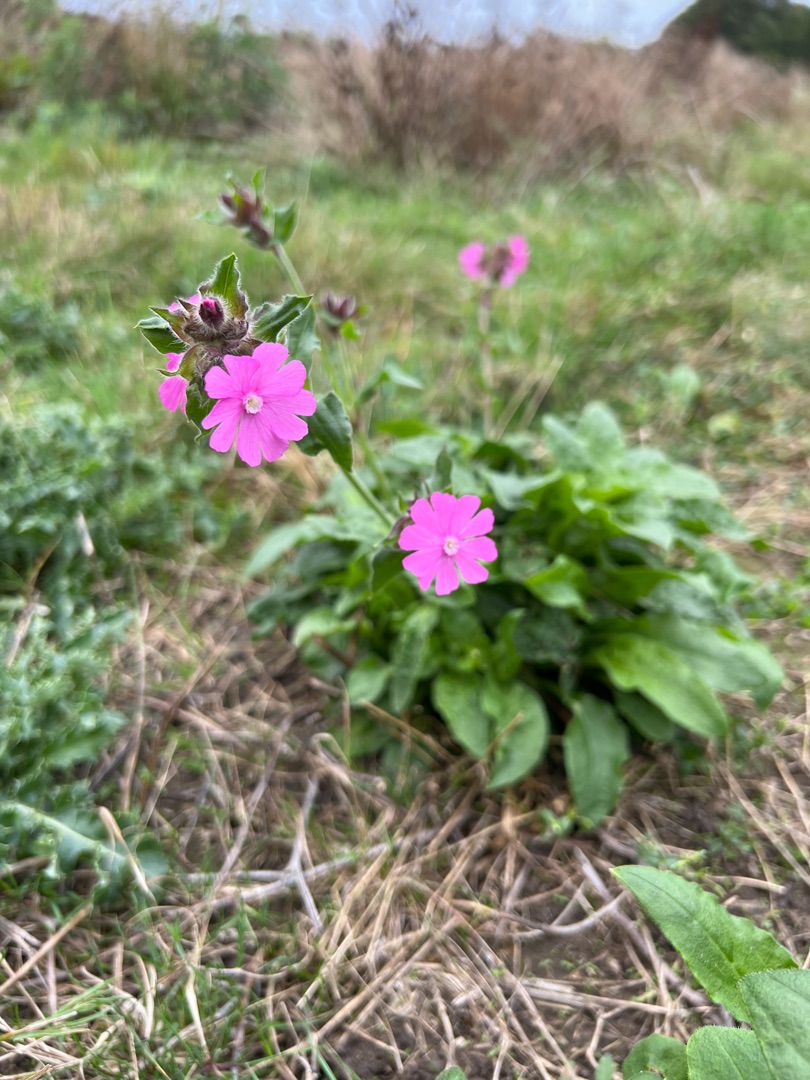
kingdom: Plantae
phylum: Tracheophyta
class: Magnoliopsida
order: Caryophyllales
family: Caryophyllaceae
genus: Silene
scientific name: Silene dioica
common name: Dagpragtstjerne
